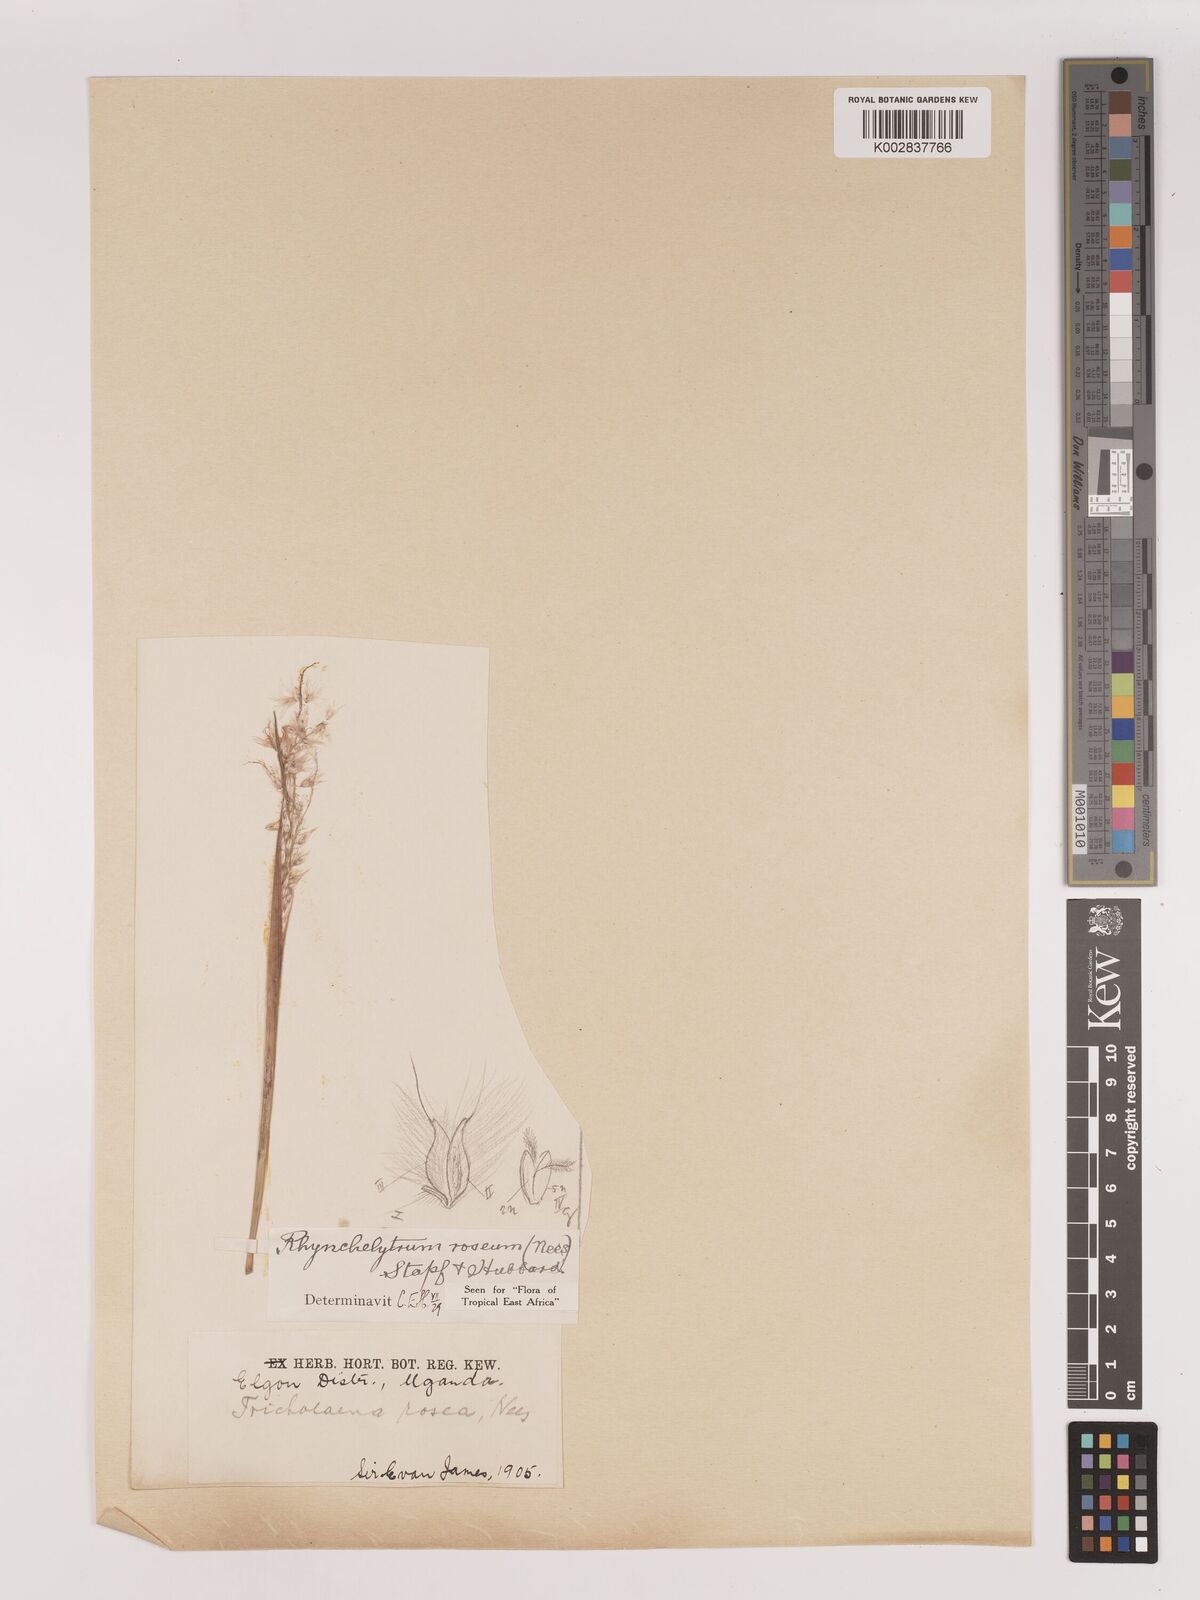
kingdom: Plantae
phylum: Tracheophyta
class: Liliopsida
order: Poales
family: Poaceae
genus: Melinis
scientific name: Melinis repens
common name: Rose natal grass
